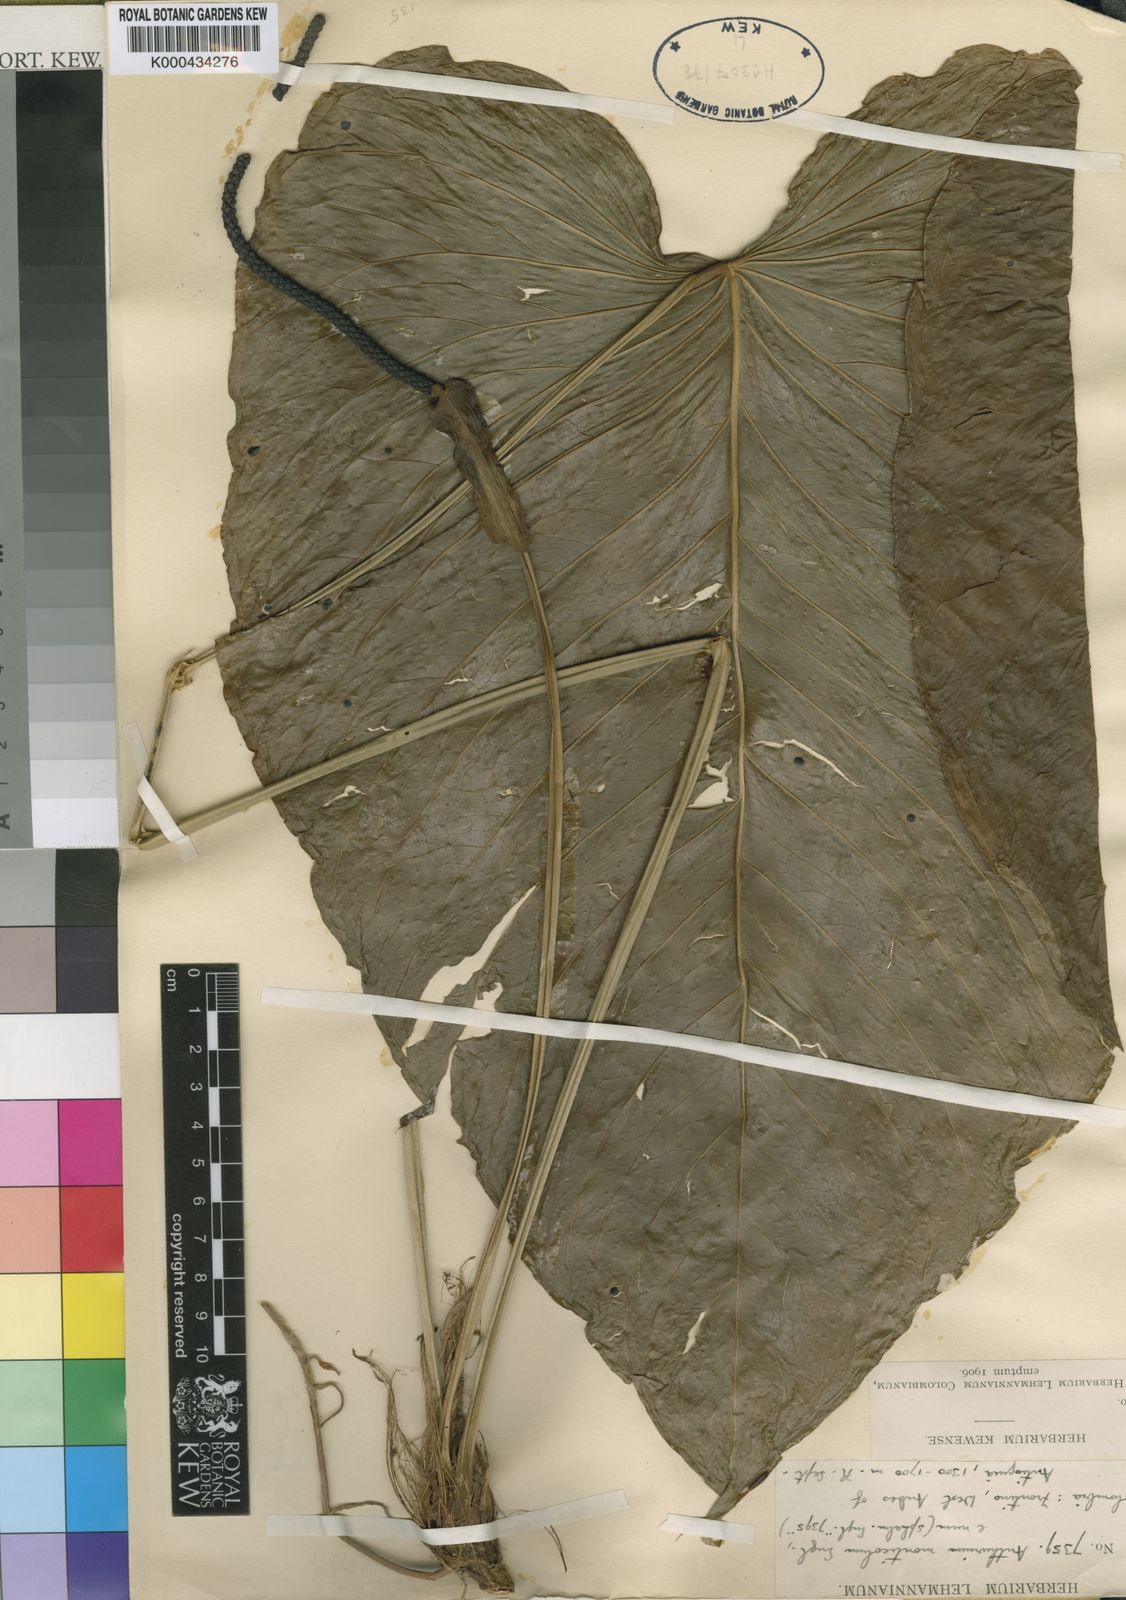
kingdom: Plantae
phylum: Tracheophyta
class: Liliopsida
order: Alismatales
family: Araceae
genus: Anthurium
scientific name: Anthurium monticola
